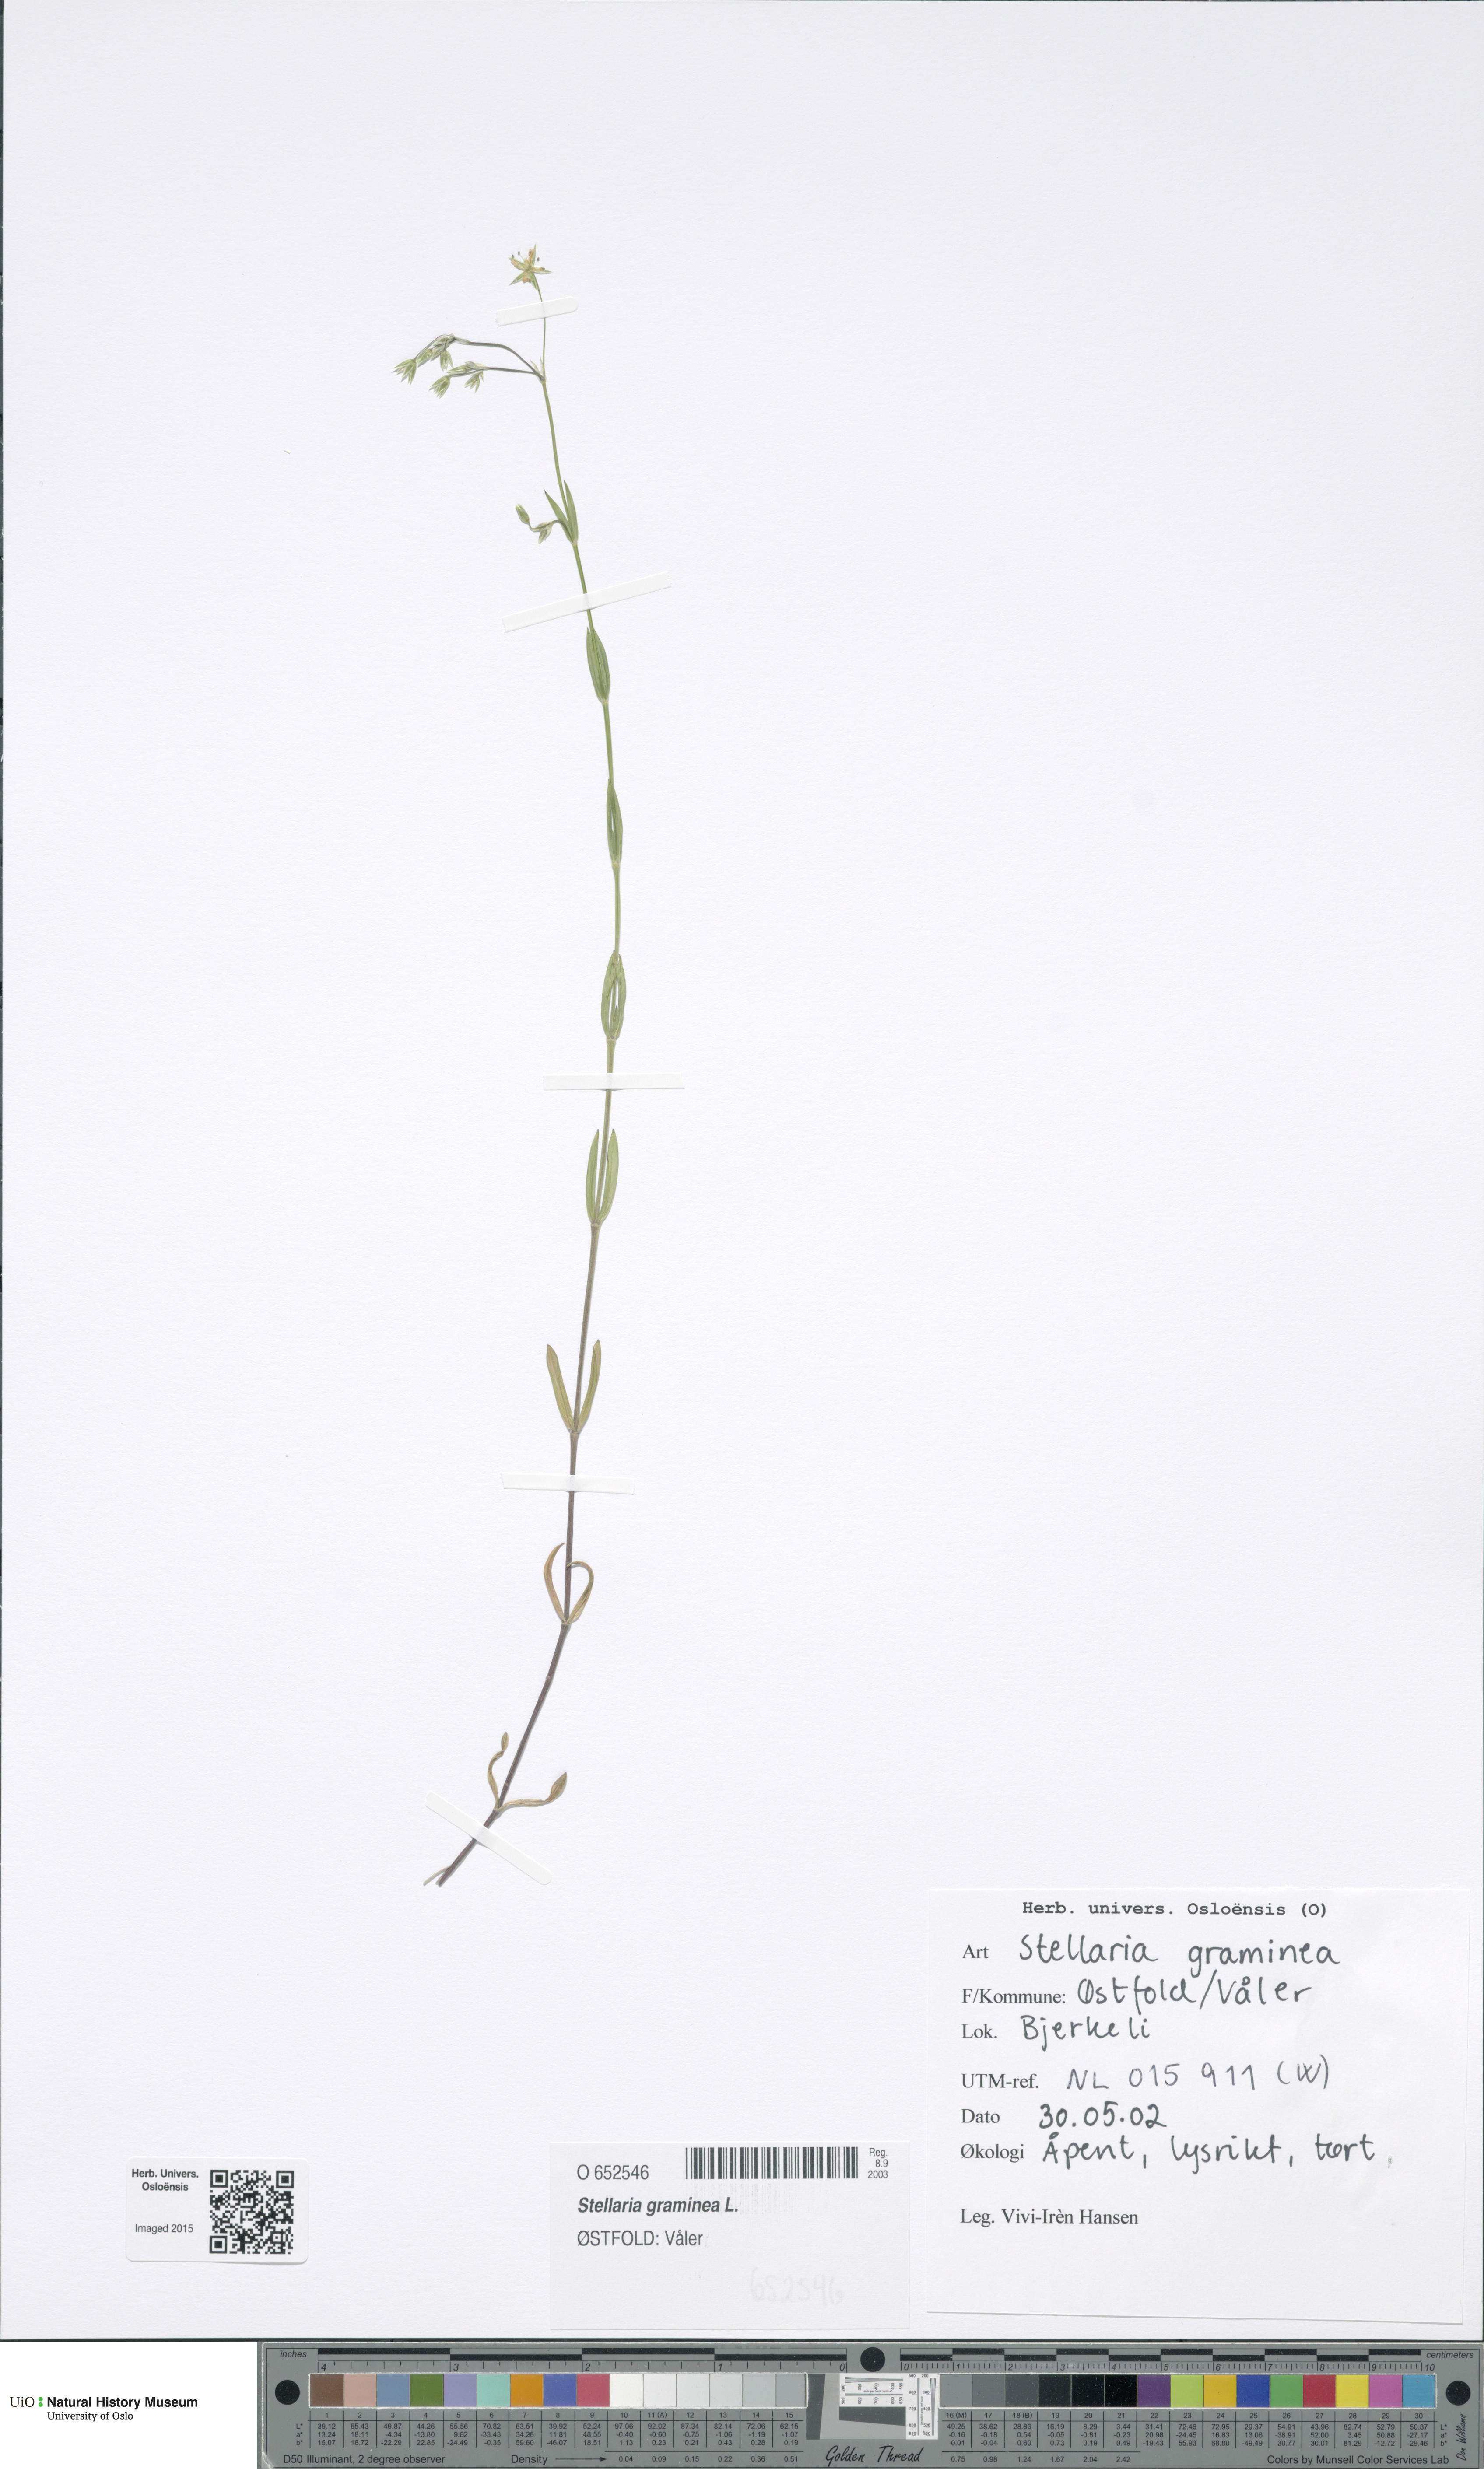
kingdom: Plantae
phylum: Tracheophyta
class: Magnoliopsida
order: Caryophyllales
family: Caryophyllaceae
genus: Stellaria
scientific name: Stellaria graminea
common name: Grass-like starwort
